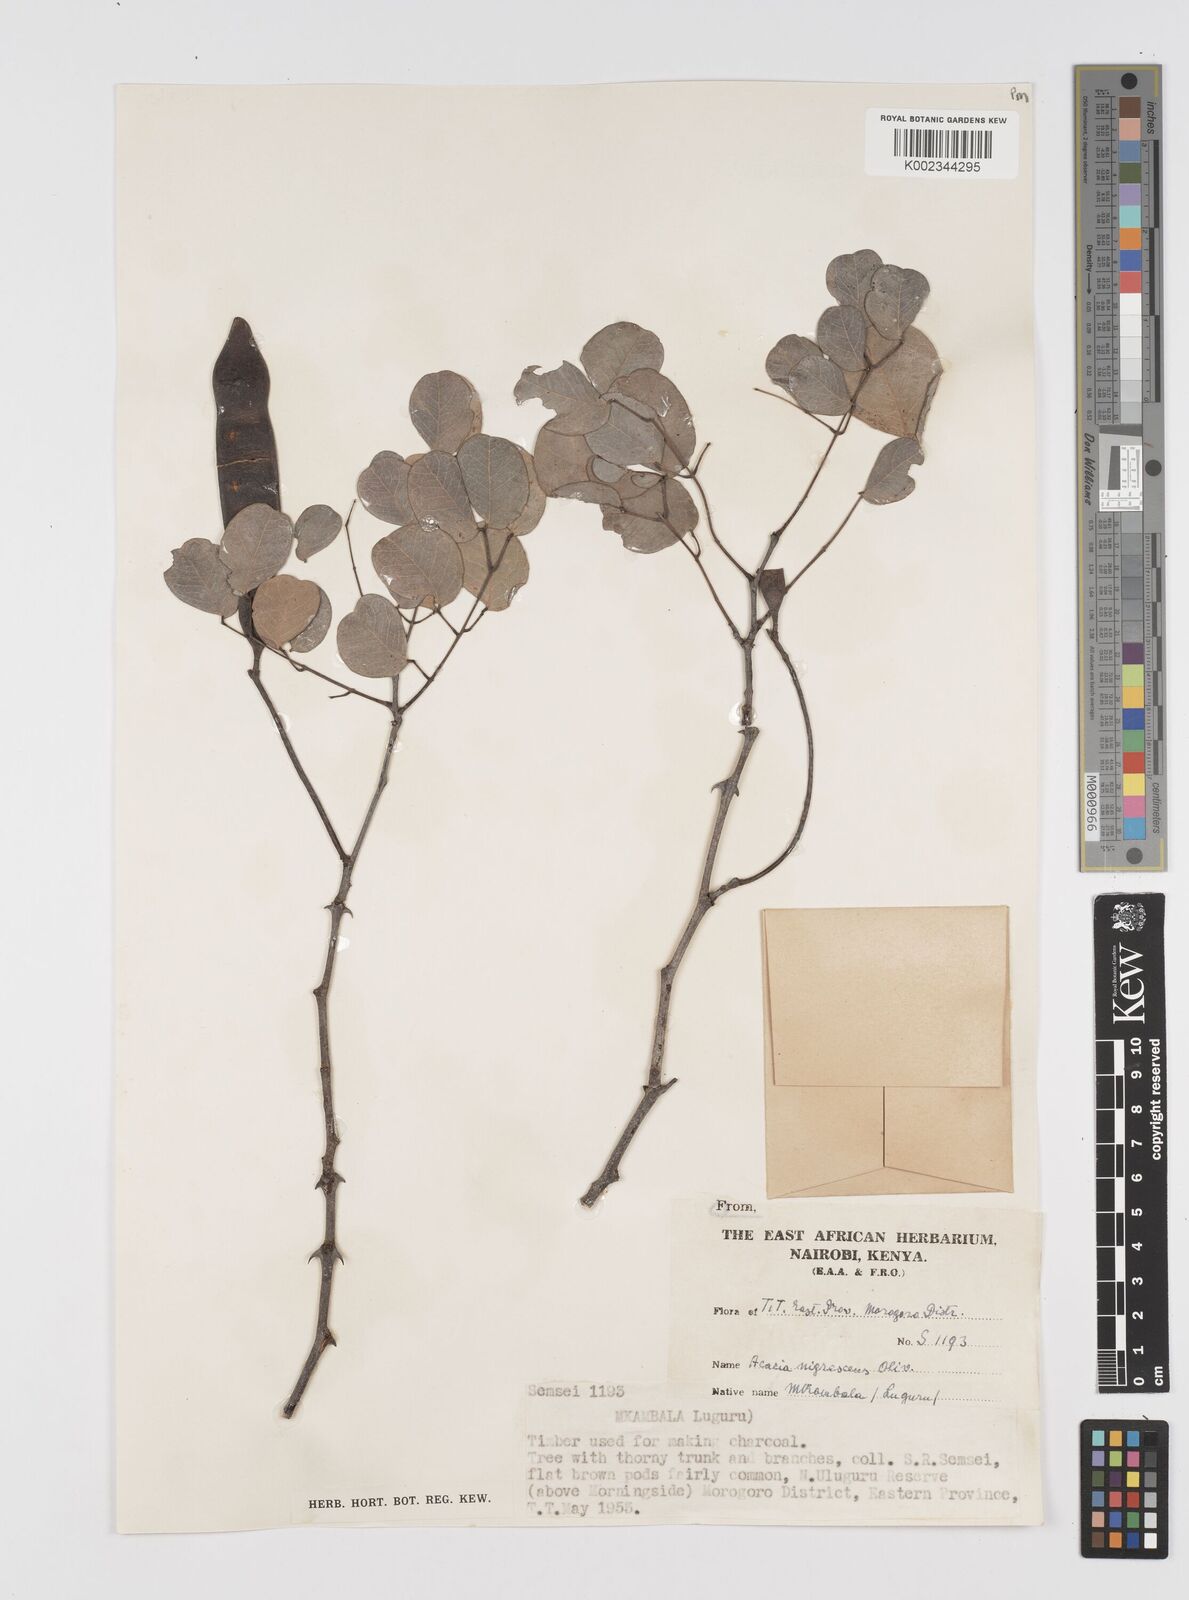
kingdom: Plantae
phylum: Tracheophyta
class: Magnoliopsida
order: Fabales
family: Fabaceae
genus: Senegalia
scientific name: Senegalia nigrescens
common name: Knobthorn
